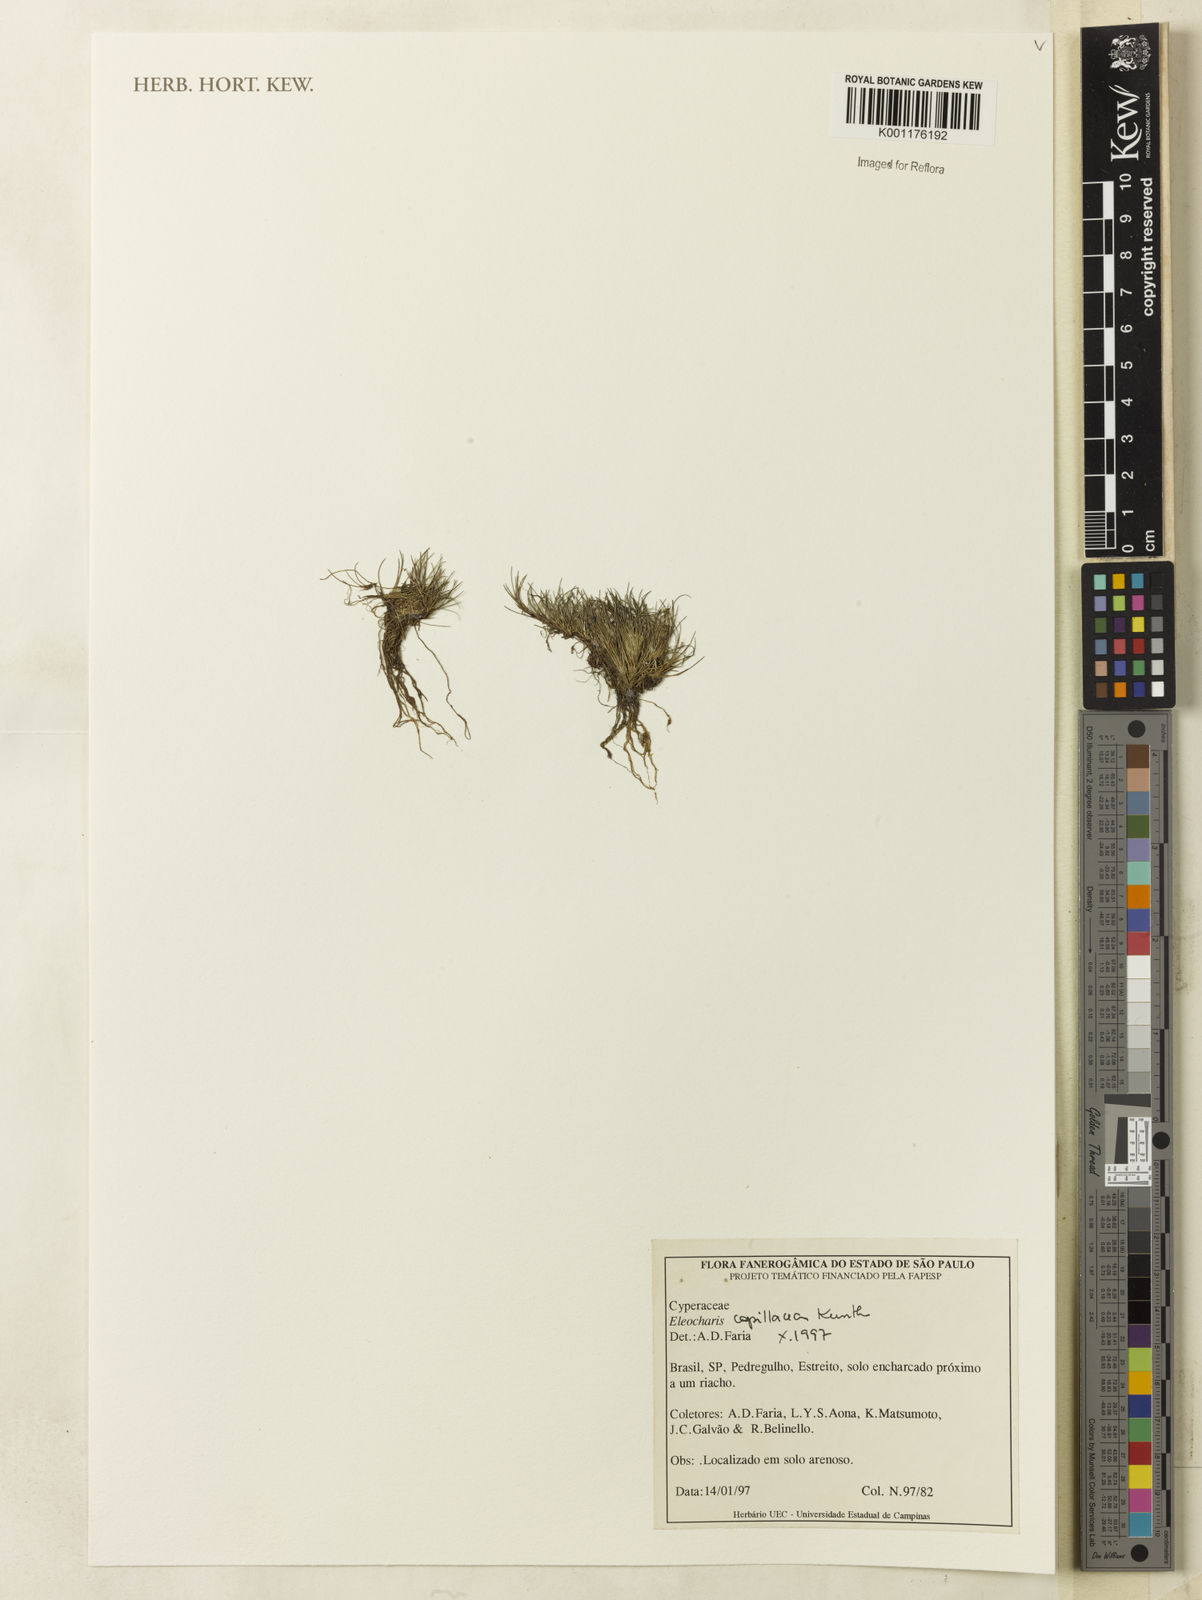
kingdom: Plantae
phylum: Tracheophyta
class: Liliopsida
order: Poales
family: Cyperaceae
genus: Eleocharis
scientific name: Eleocharis capillacea
